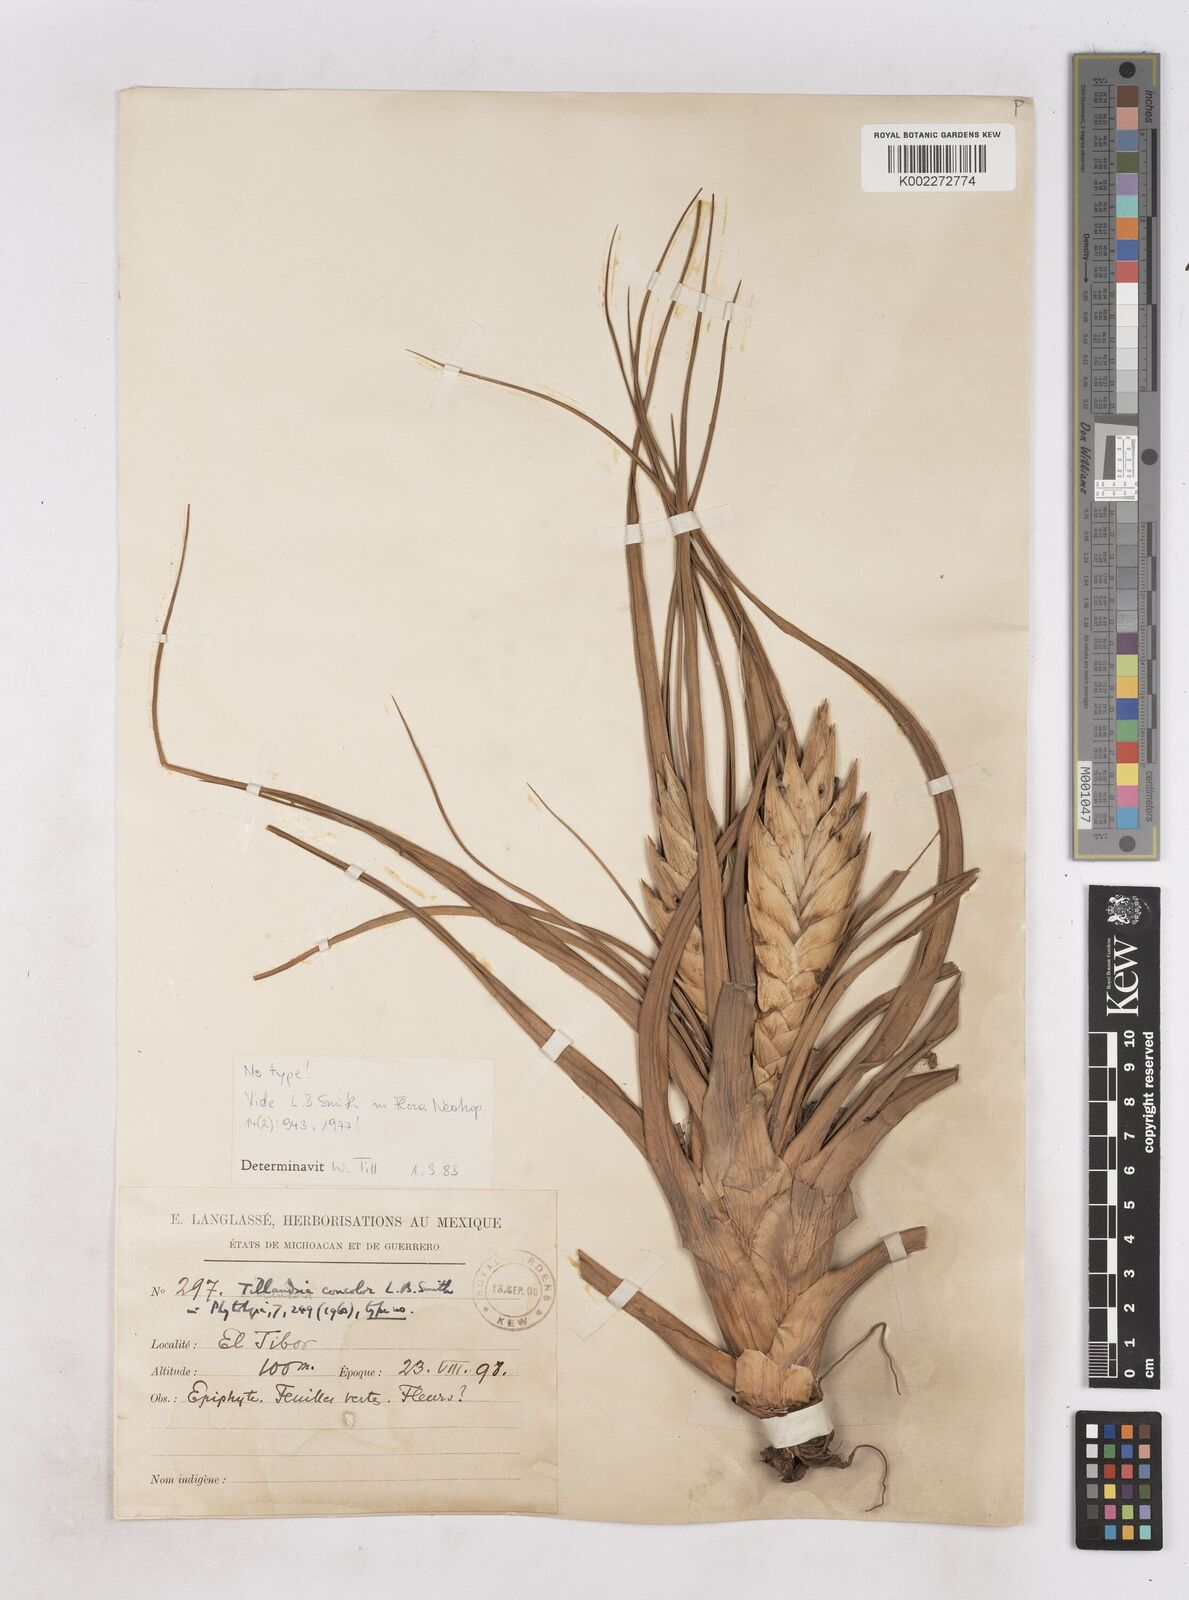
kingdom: Plantae
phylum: Tracheophyta
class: Liliopsida
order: Poales
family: Bromeliaceae
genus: Tillandsia
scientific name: Tillandsia concolor
